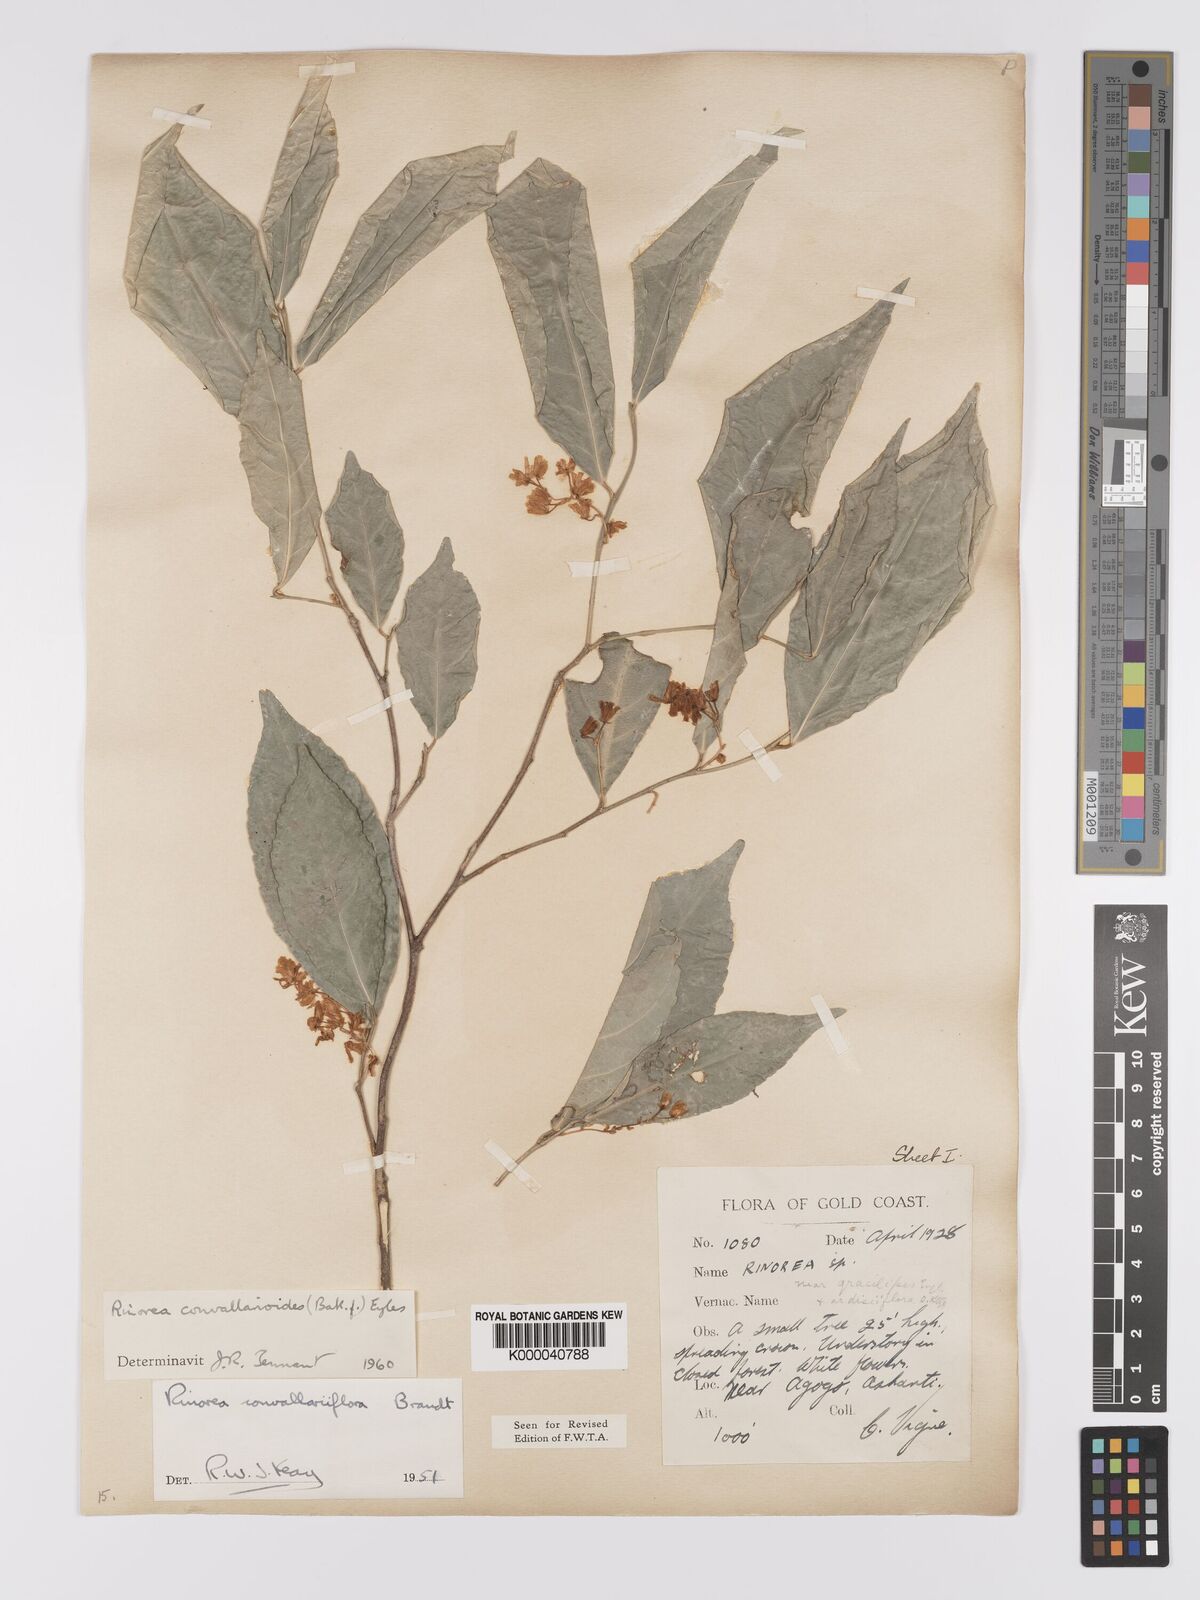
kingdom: Plantae
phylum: Tracheophyta
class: Magnoliopsida
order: Malpighiales
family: Violaceae
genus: Rinorea
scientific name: Rinorea convallarioides
